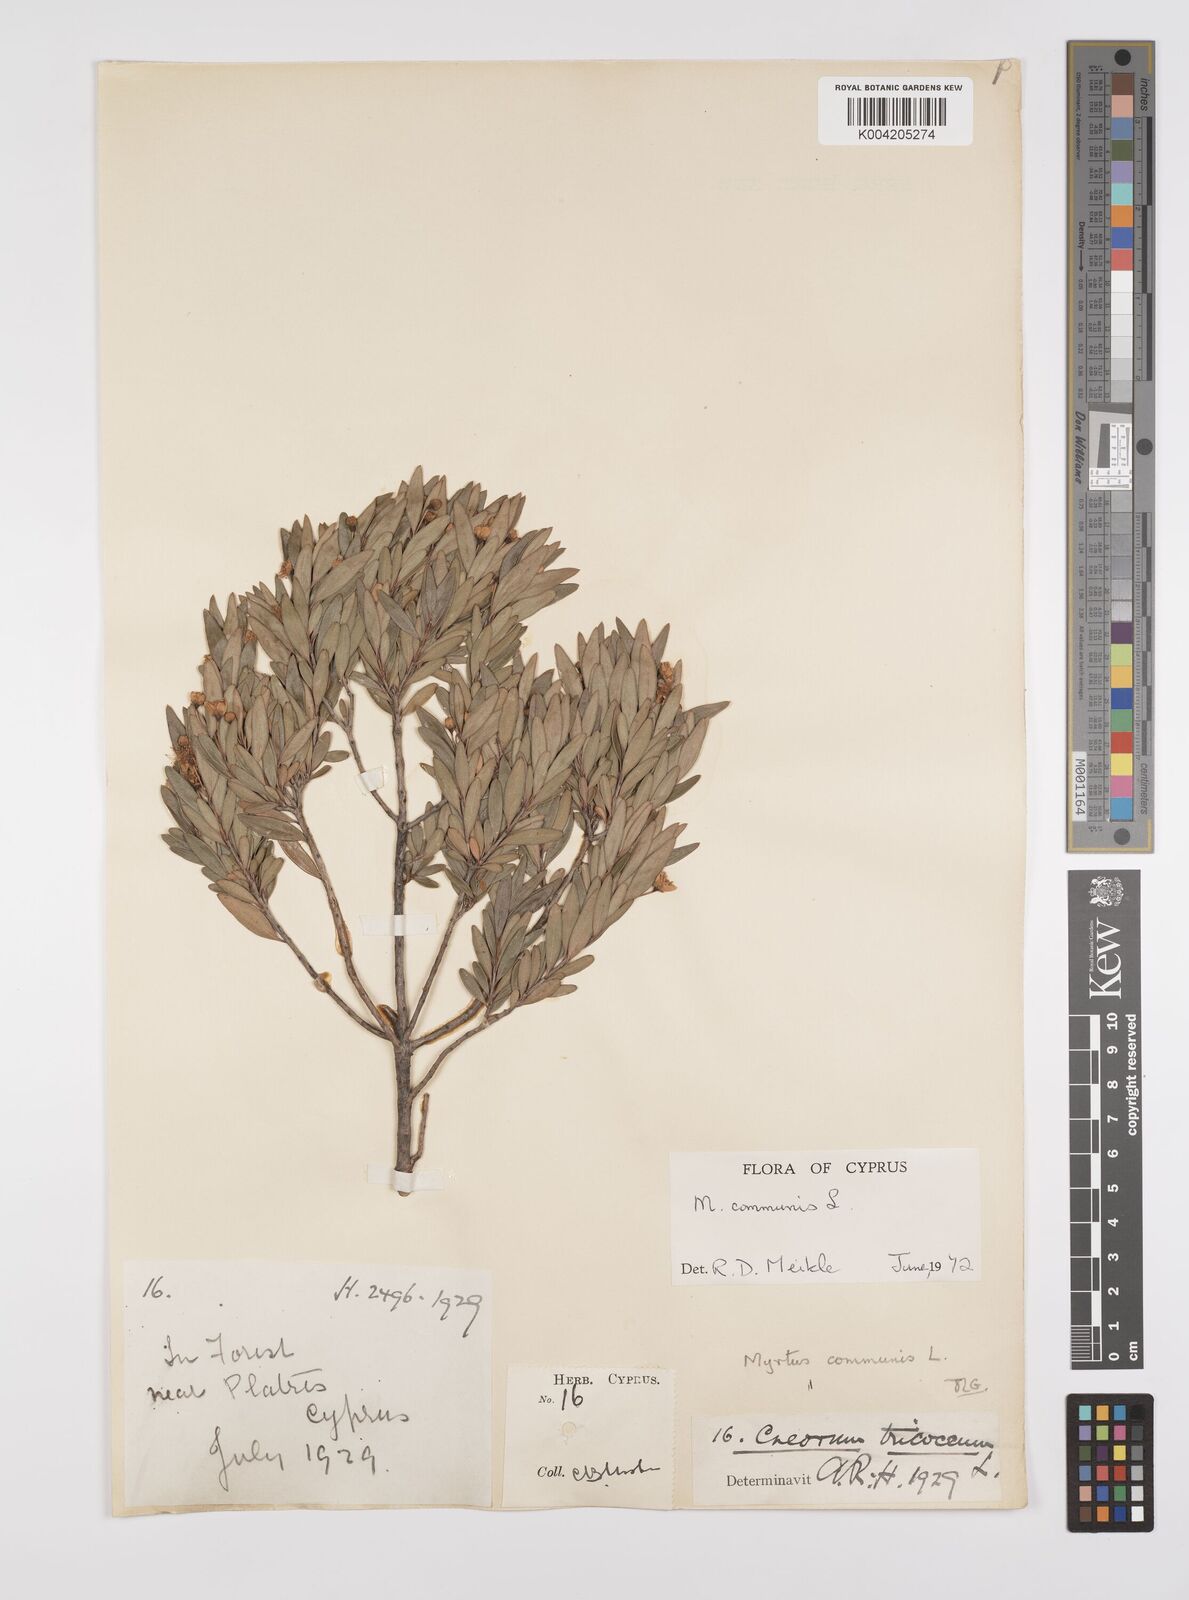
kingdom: Plantae
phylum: Tracheophyta
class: Magnoliopsida
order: Myrtales
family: Myrtaceae
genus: Myrtus
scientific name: Myrtus communis
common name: Myrtle
